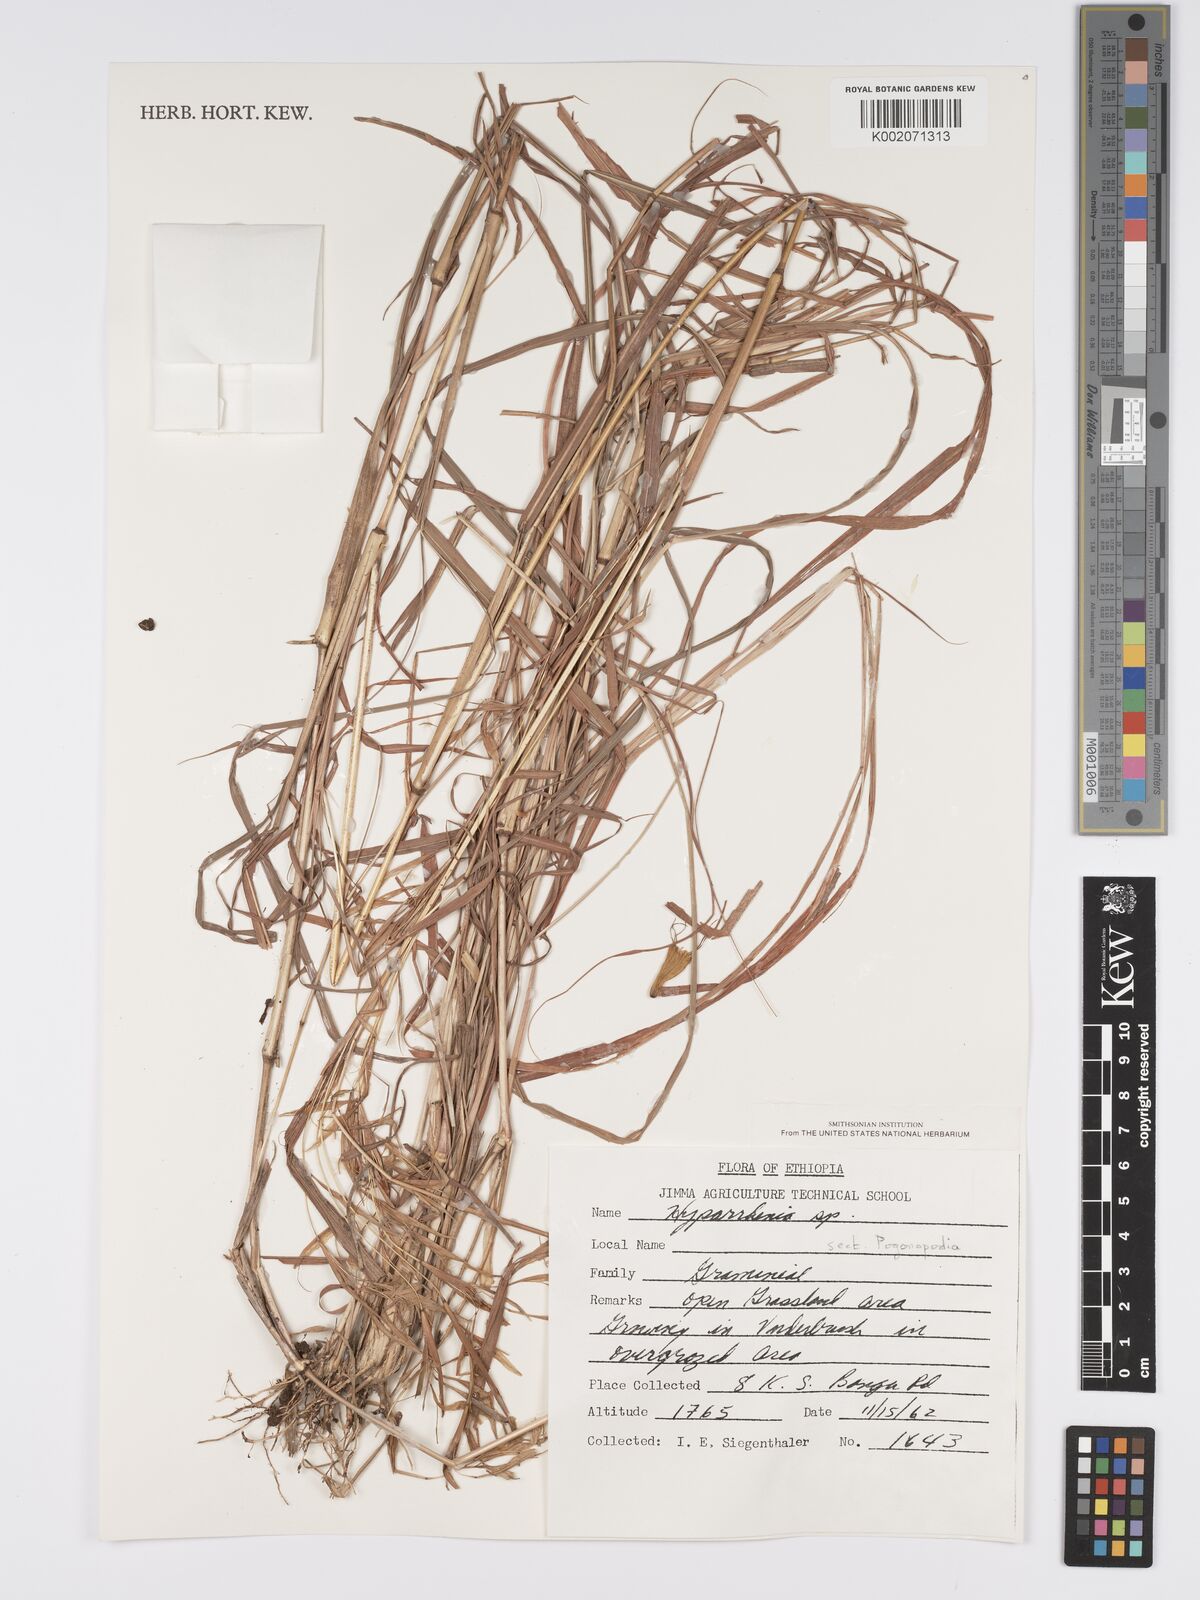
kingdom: Plantae
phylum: Tracheophyta
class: Liliopsida
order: Poales
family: Poaceae
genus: Hyparrhenia
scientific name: Hyparrhenia
